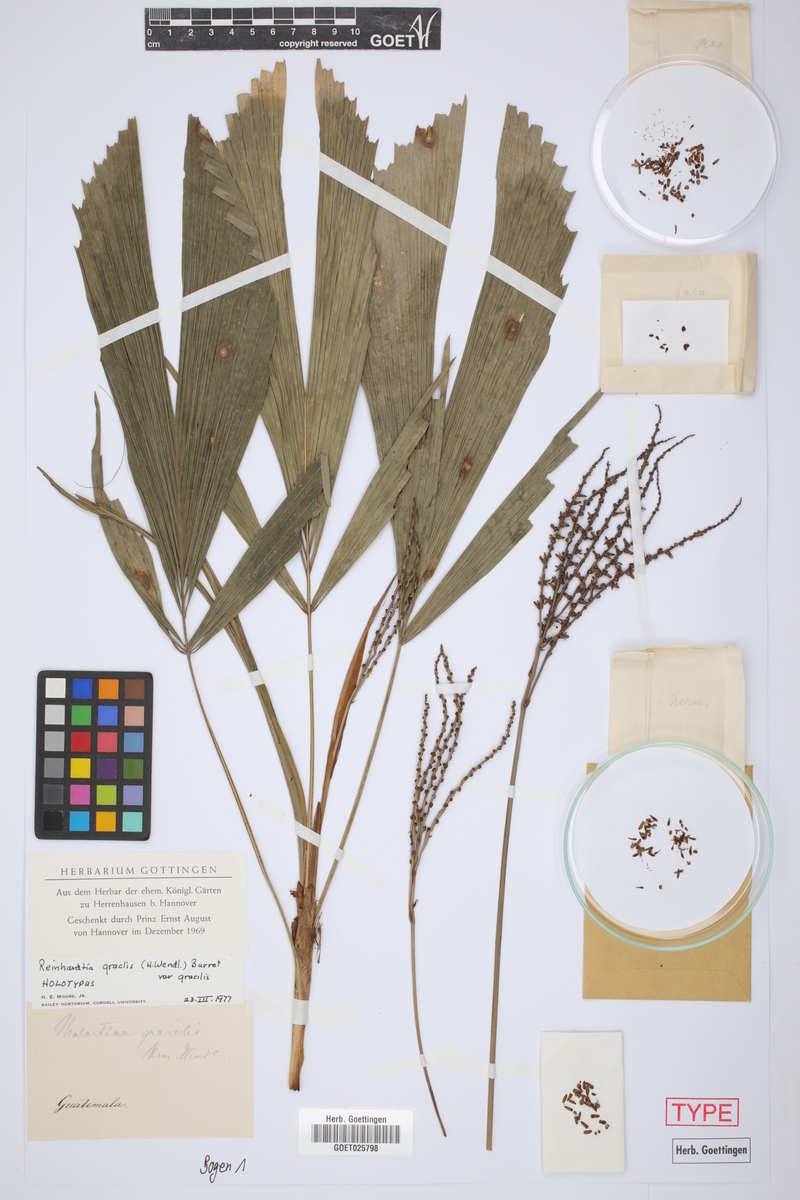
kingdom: Plantae
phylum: Tracheophyta
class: Liliopsida
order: Arecales
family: Arecaceae
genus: Reinhardtia
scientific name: Reinhardtia gracilis
